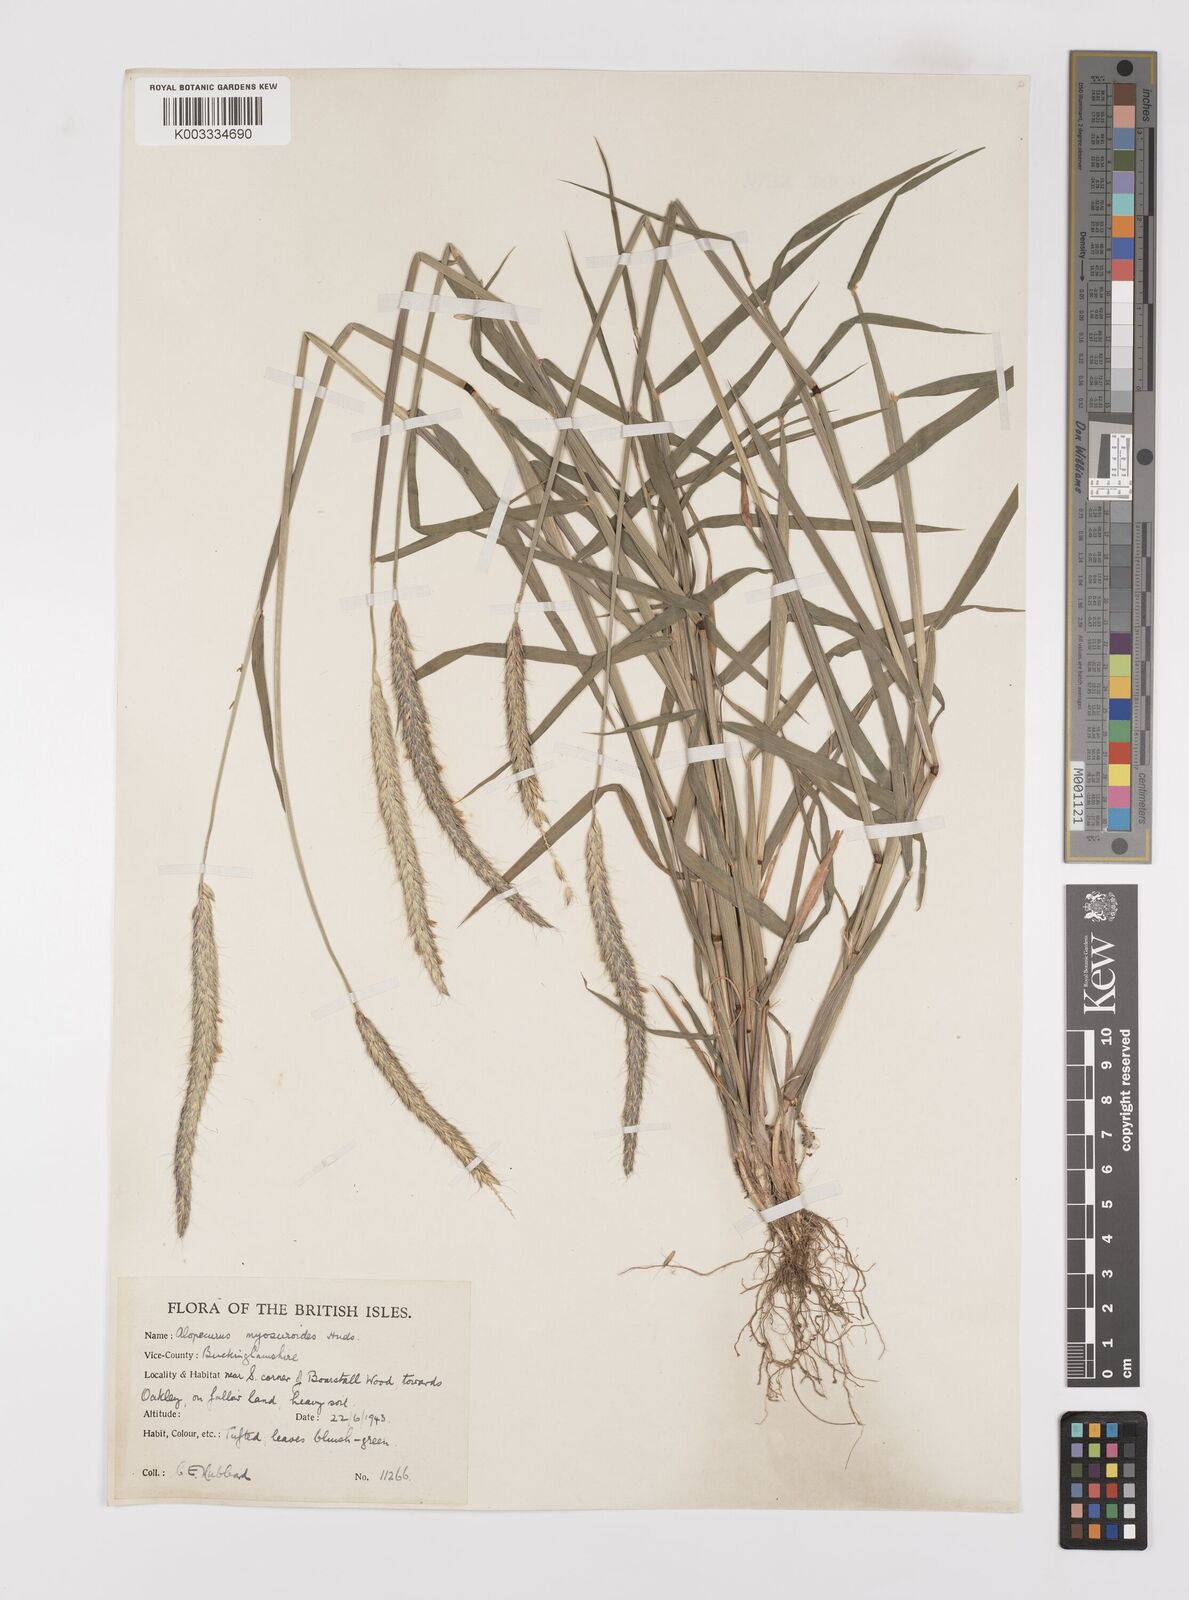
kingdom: Plantae
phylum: Tracheophyta
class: Liliopsida
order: Poales
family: Poaceae
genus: Alopecurus
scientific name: Alopecurus myosuroides
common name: Black-grass
